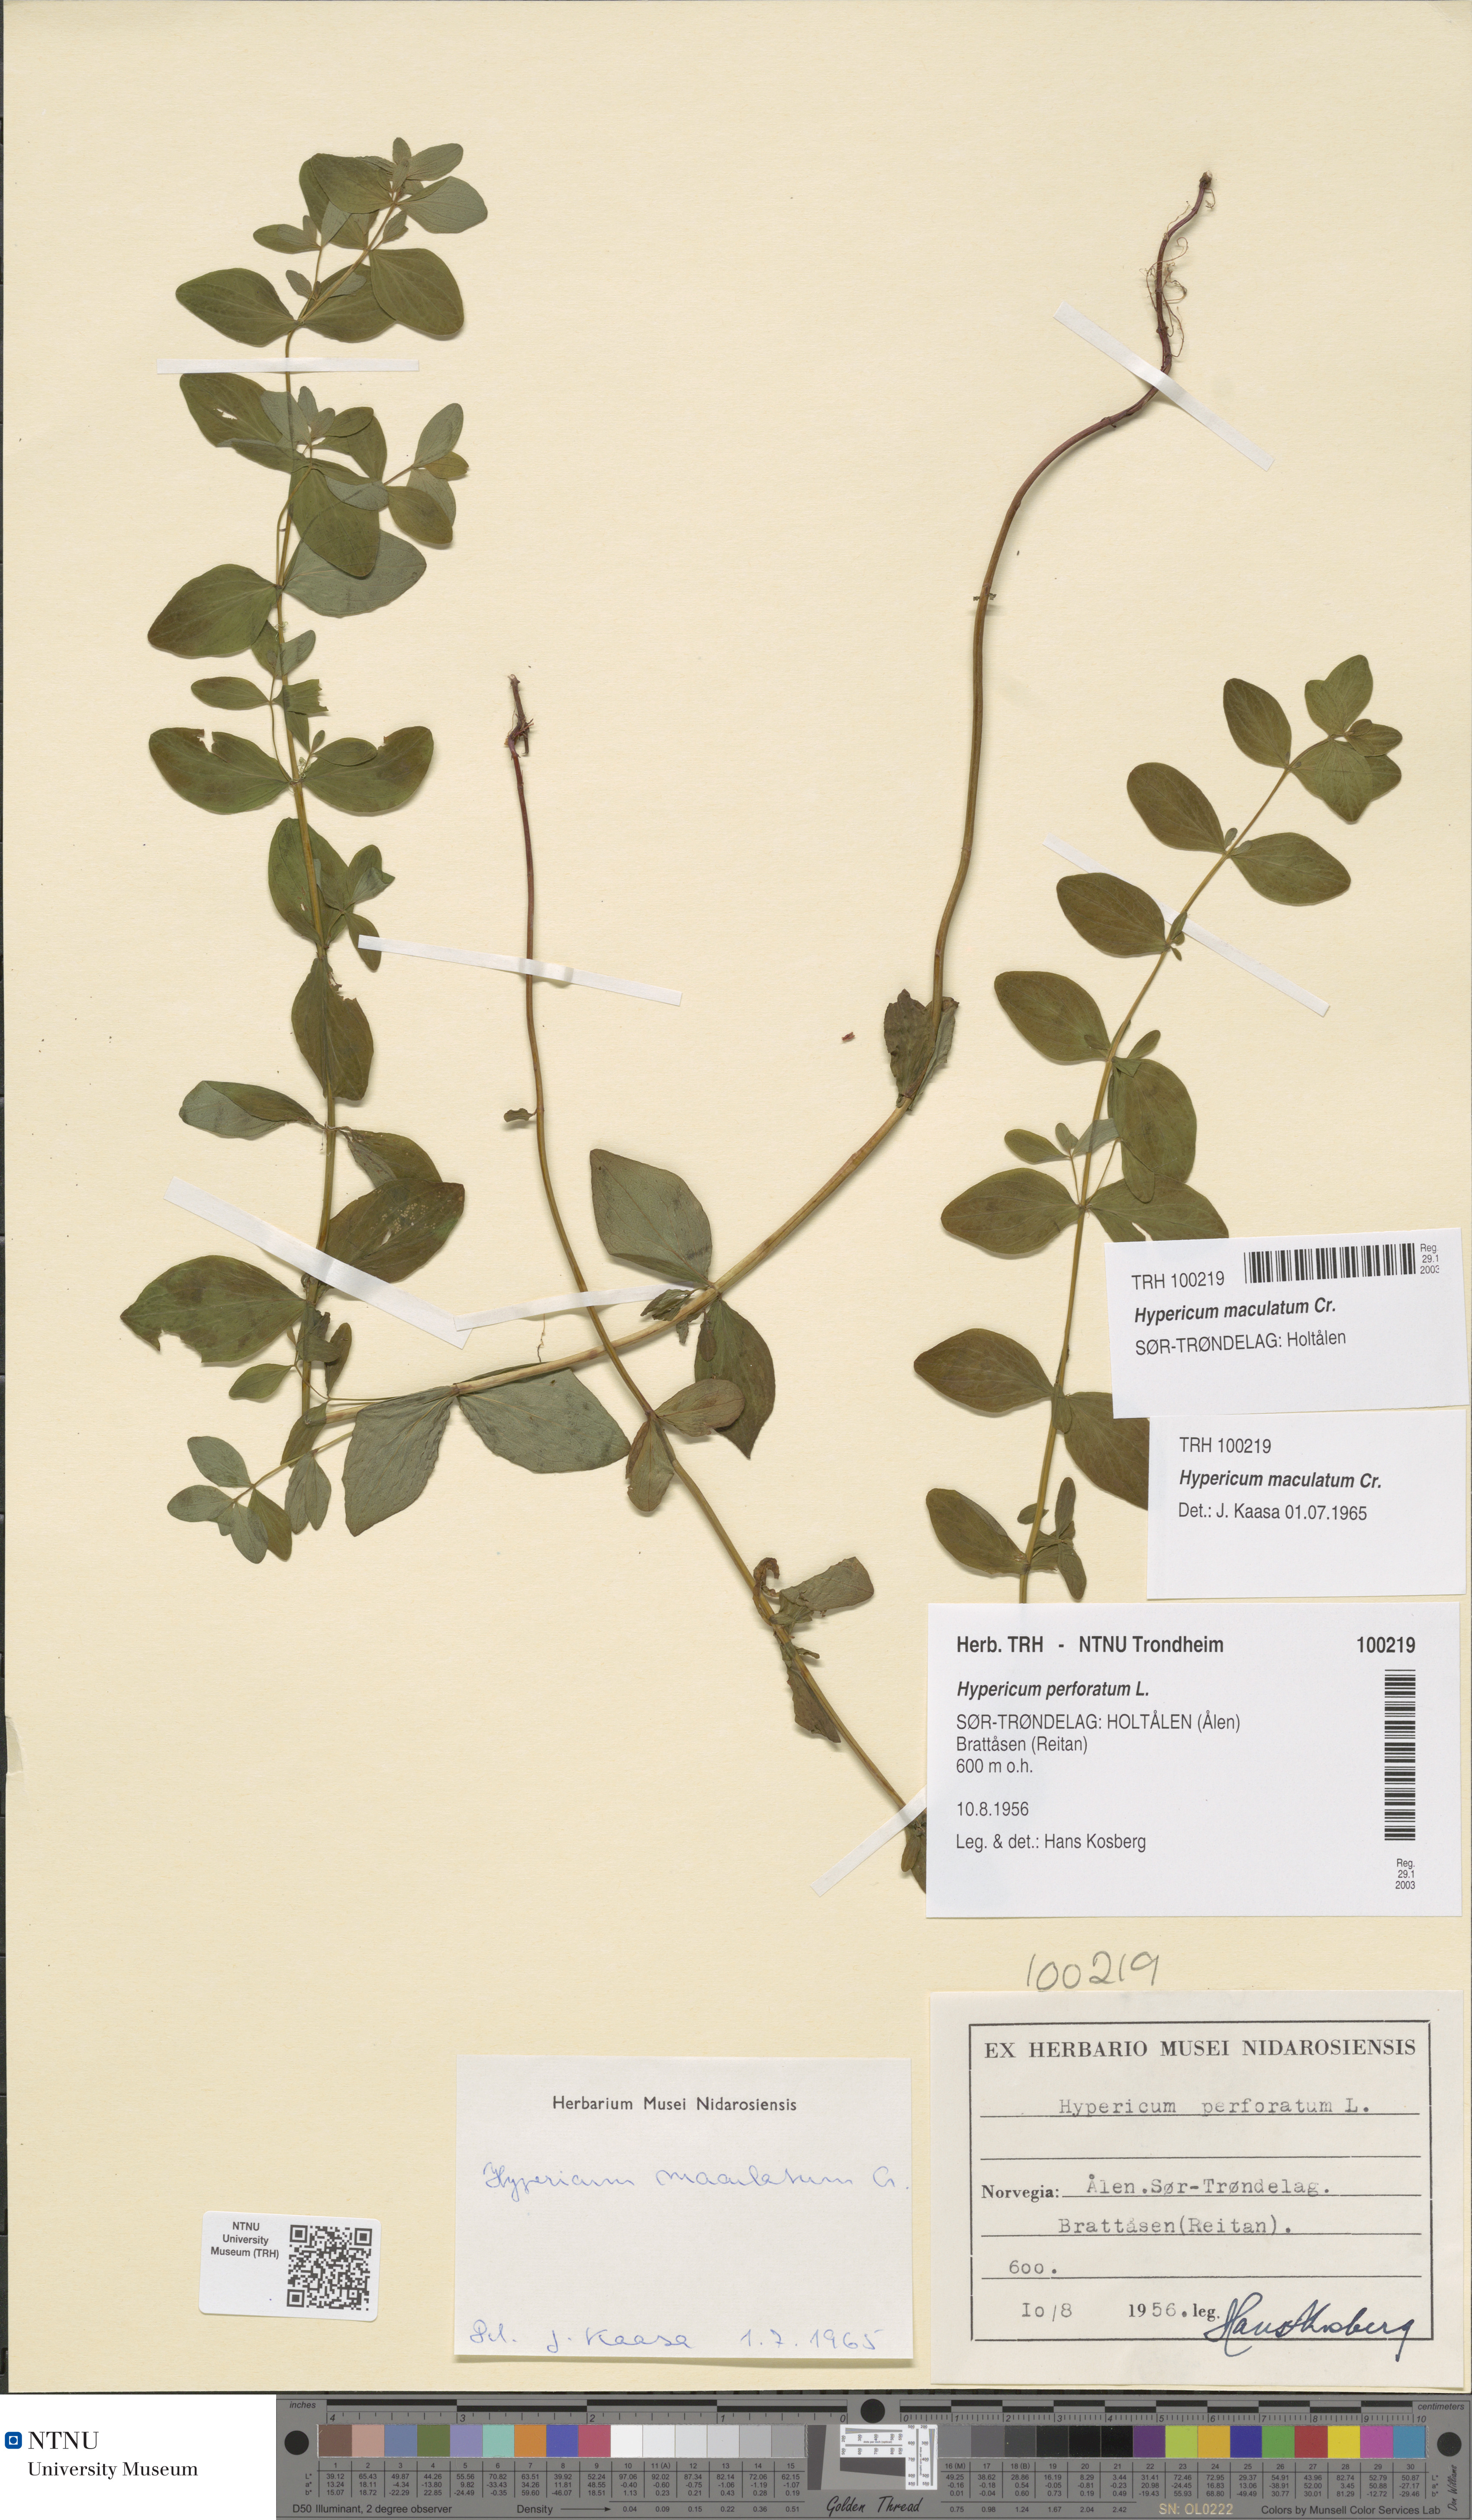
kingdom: Plantae
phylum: Tracheophyta
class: Magnoliopsida
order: Malpighiales
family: Hypericaceae
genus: Hypericum
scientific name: Hypericum maculatum
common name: Imperforate st. john's-wort
